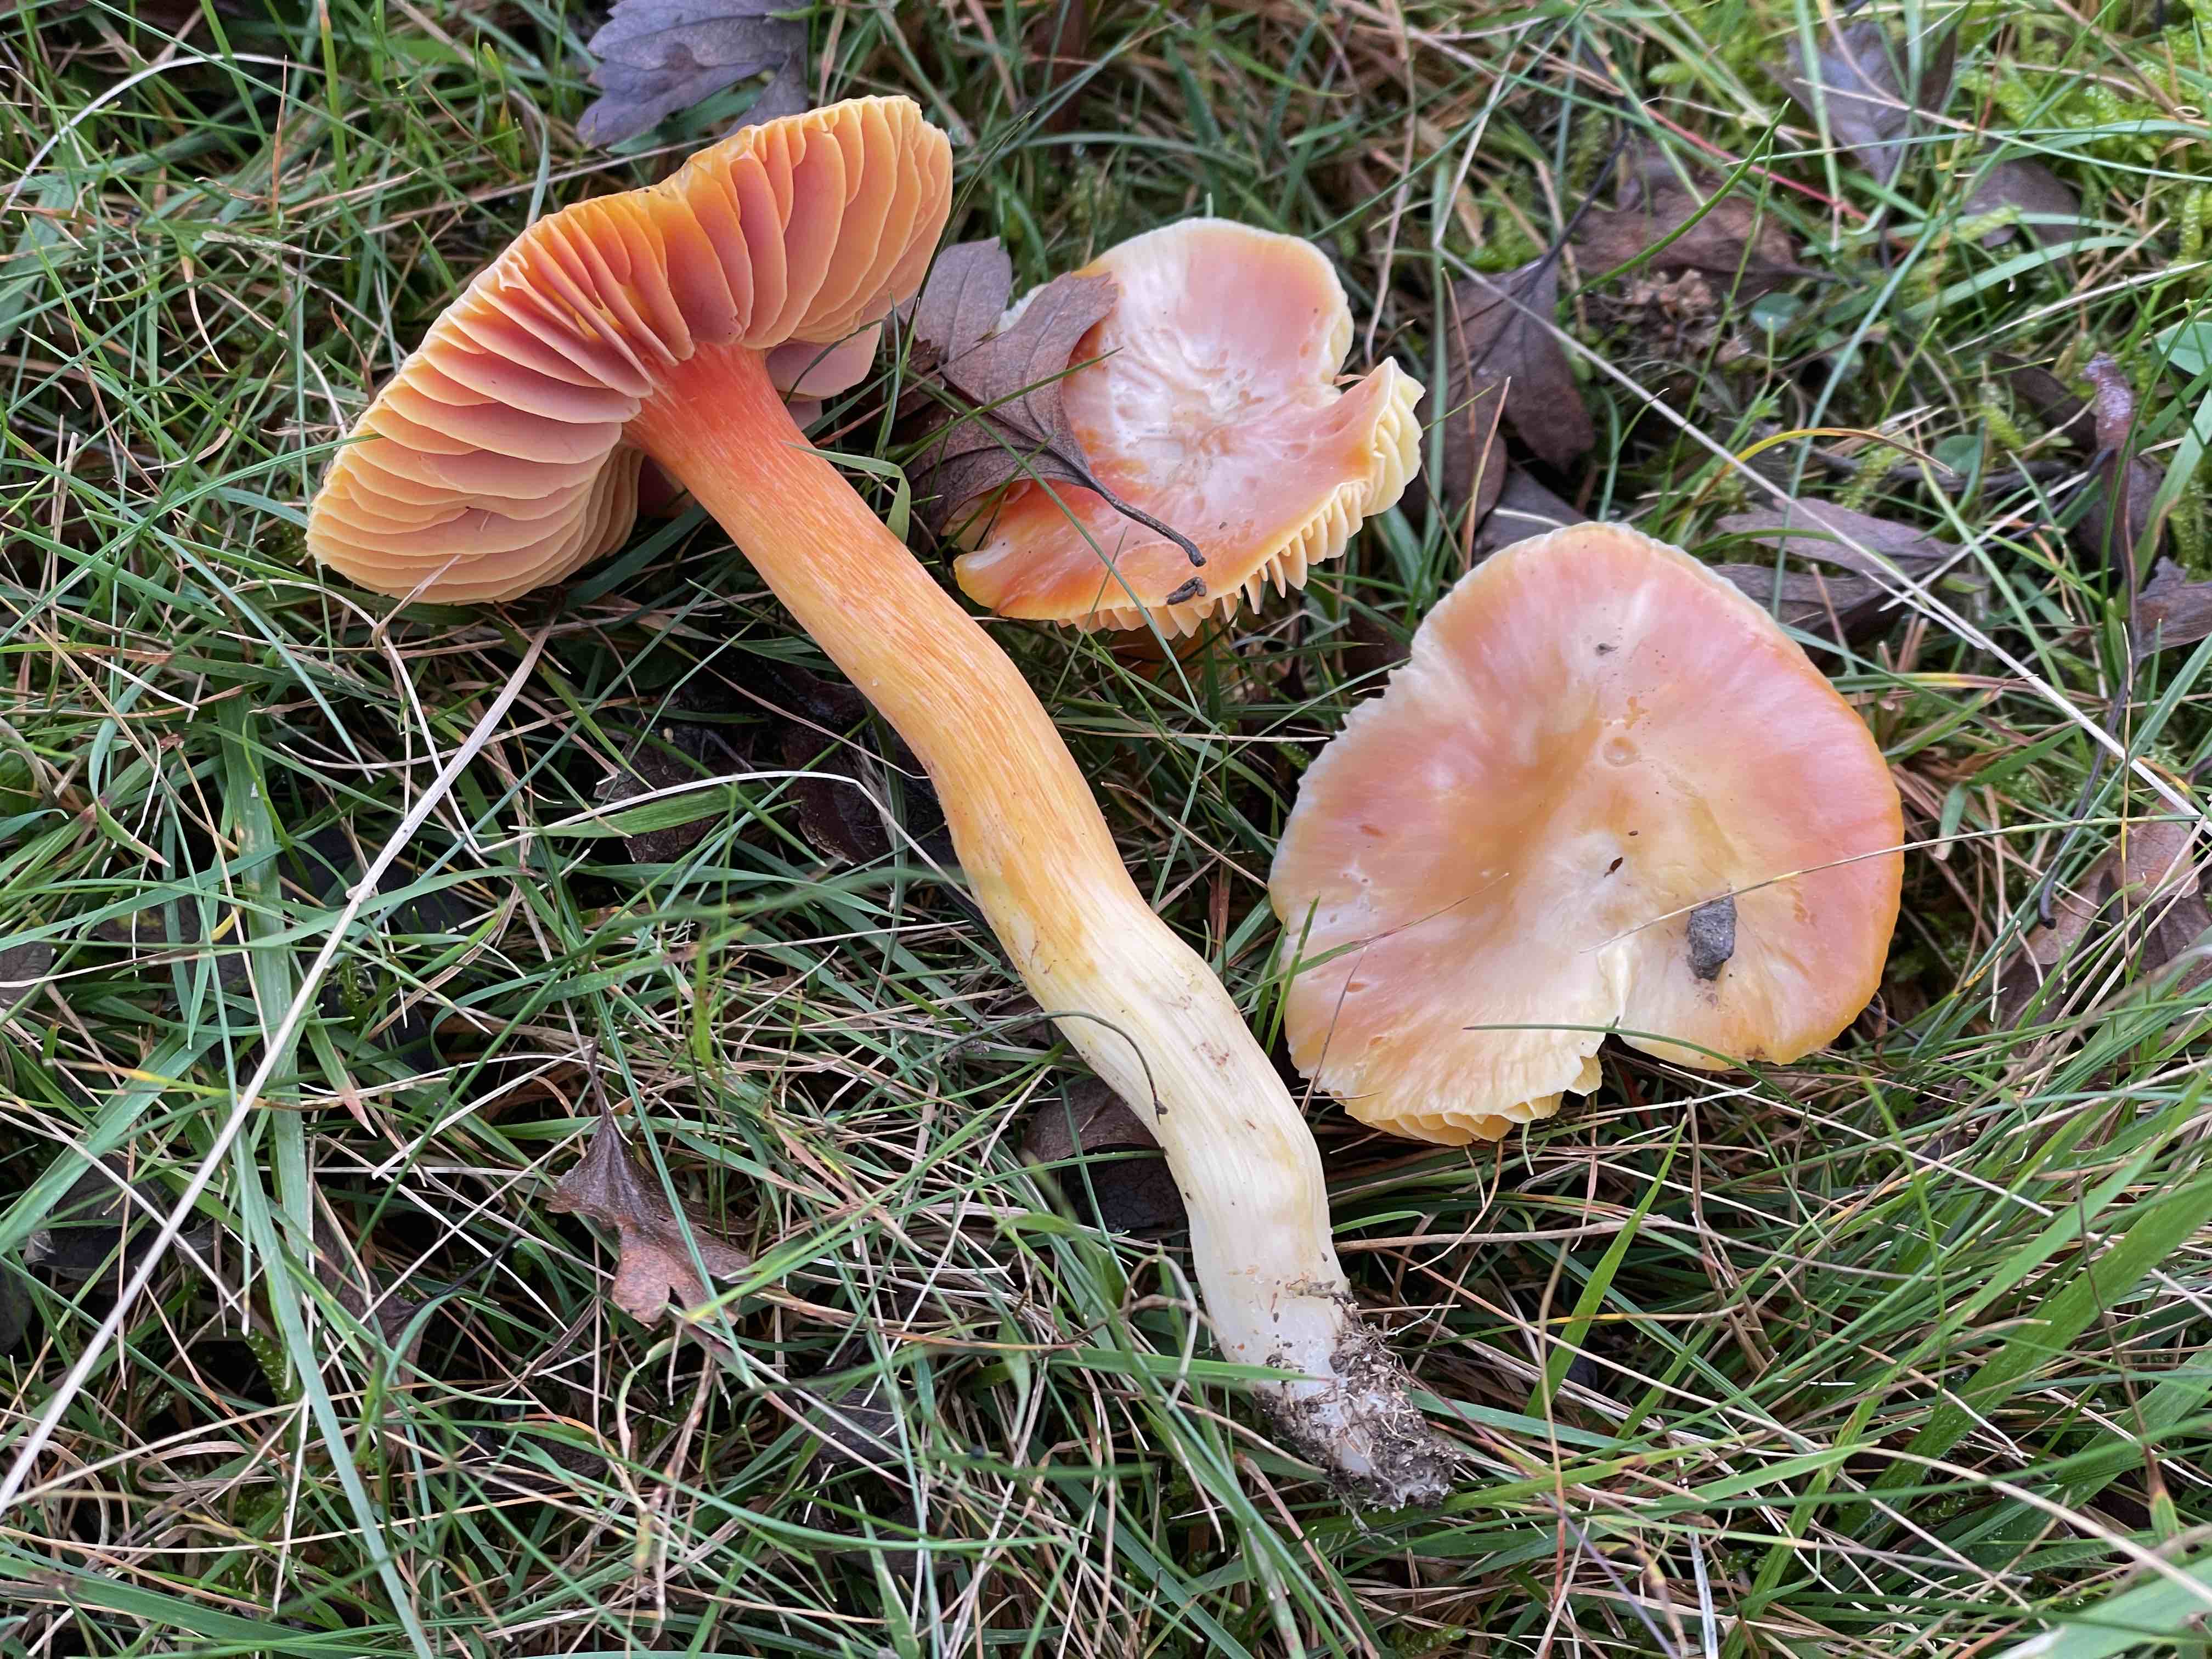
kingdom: Fungi
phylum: Basidiomycota
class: Agaricomycetes
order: Agaricales
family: Hygrophoraceae
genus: Hygrocybe
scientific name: Hygrocybe punicea
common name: skarlagen-vokshat
